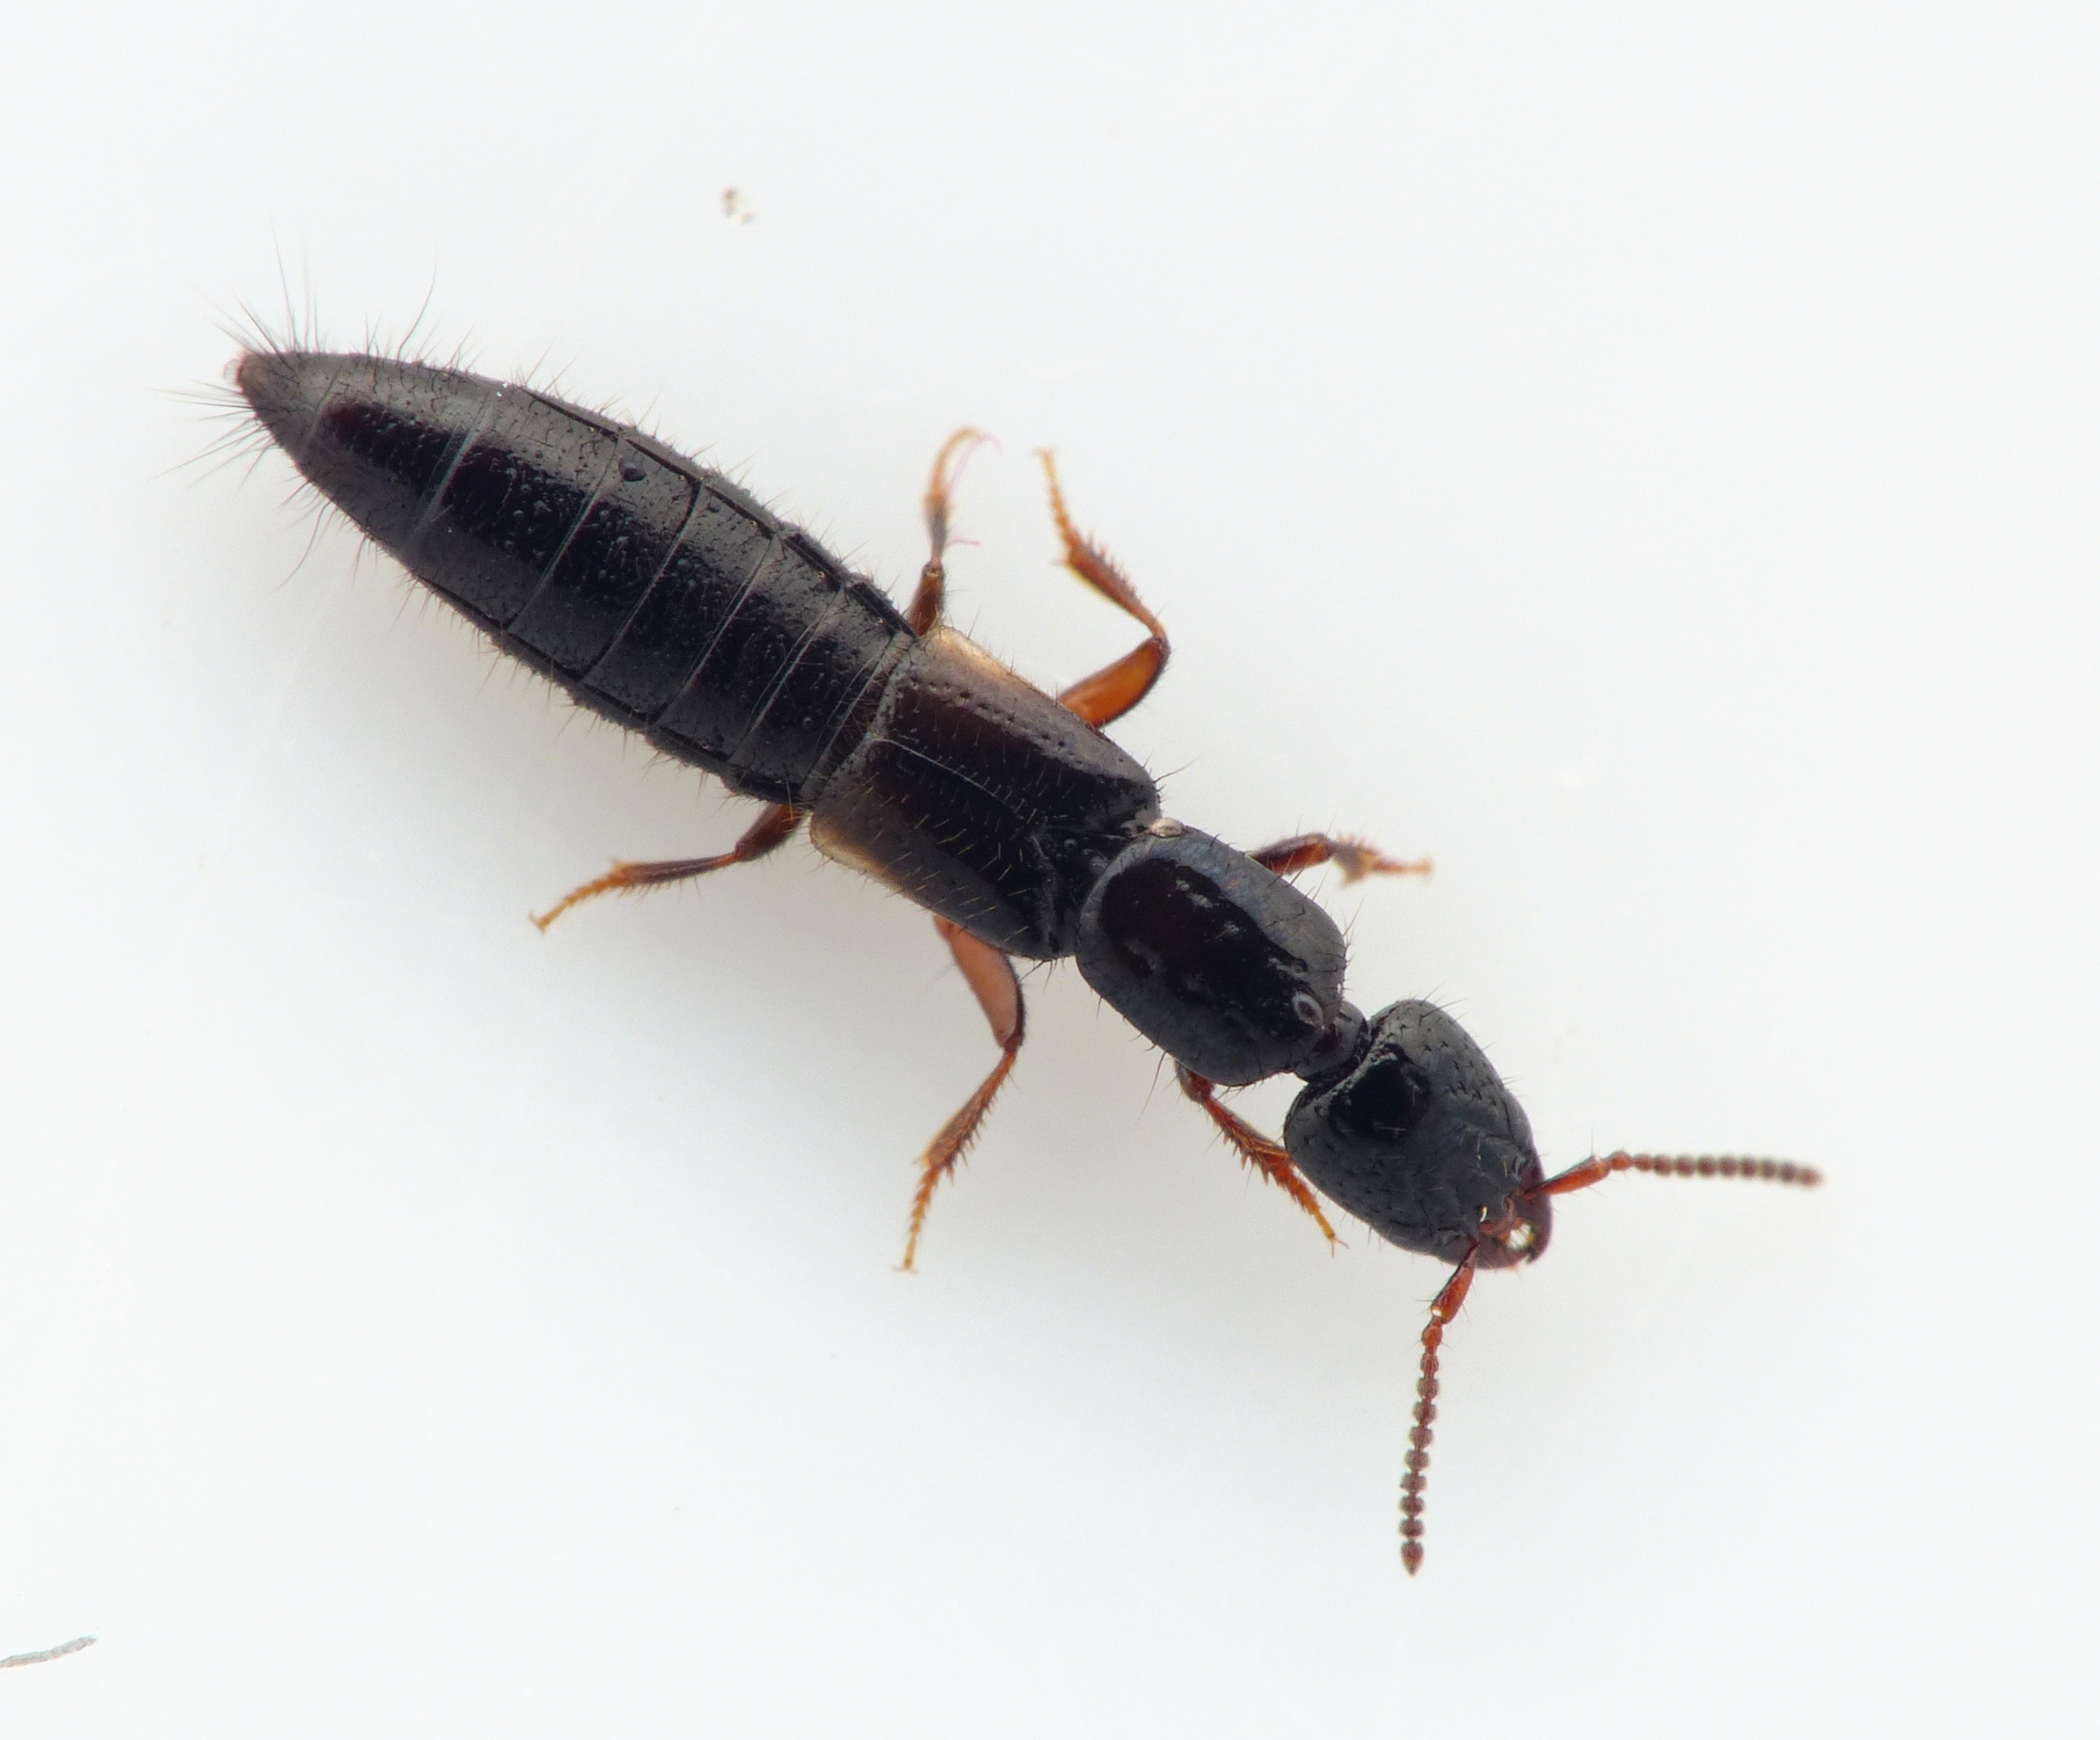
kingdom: Animalia
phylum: Arthropoda
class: Insecta
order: Coleoptera
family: Staphylinidae
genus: Phacophallus
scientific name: Phacophallus parumpunctatus
